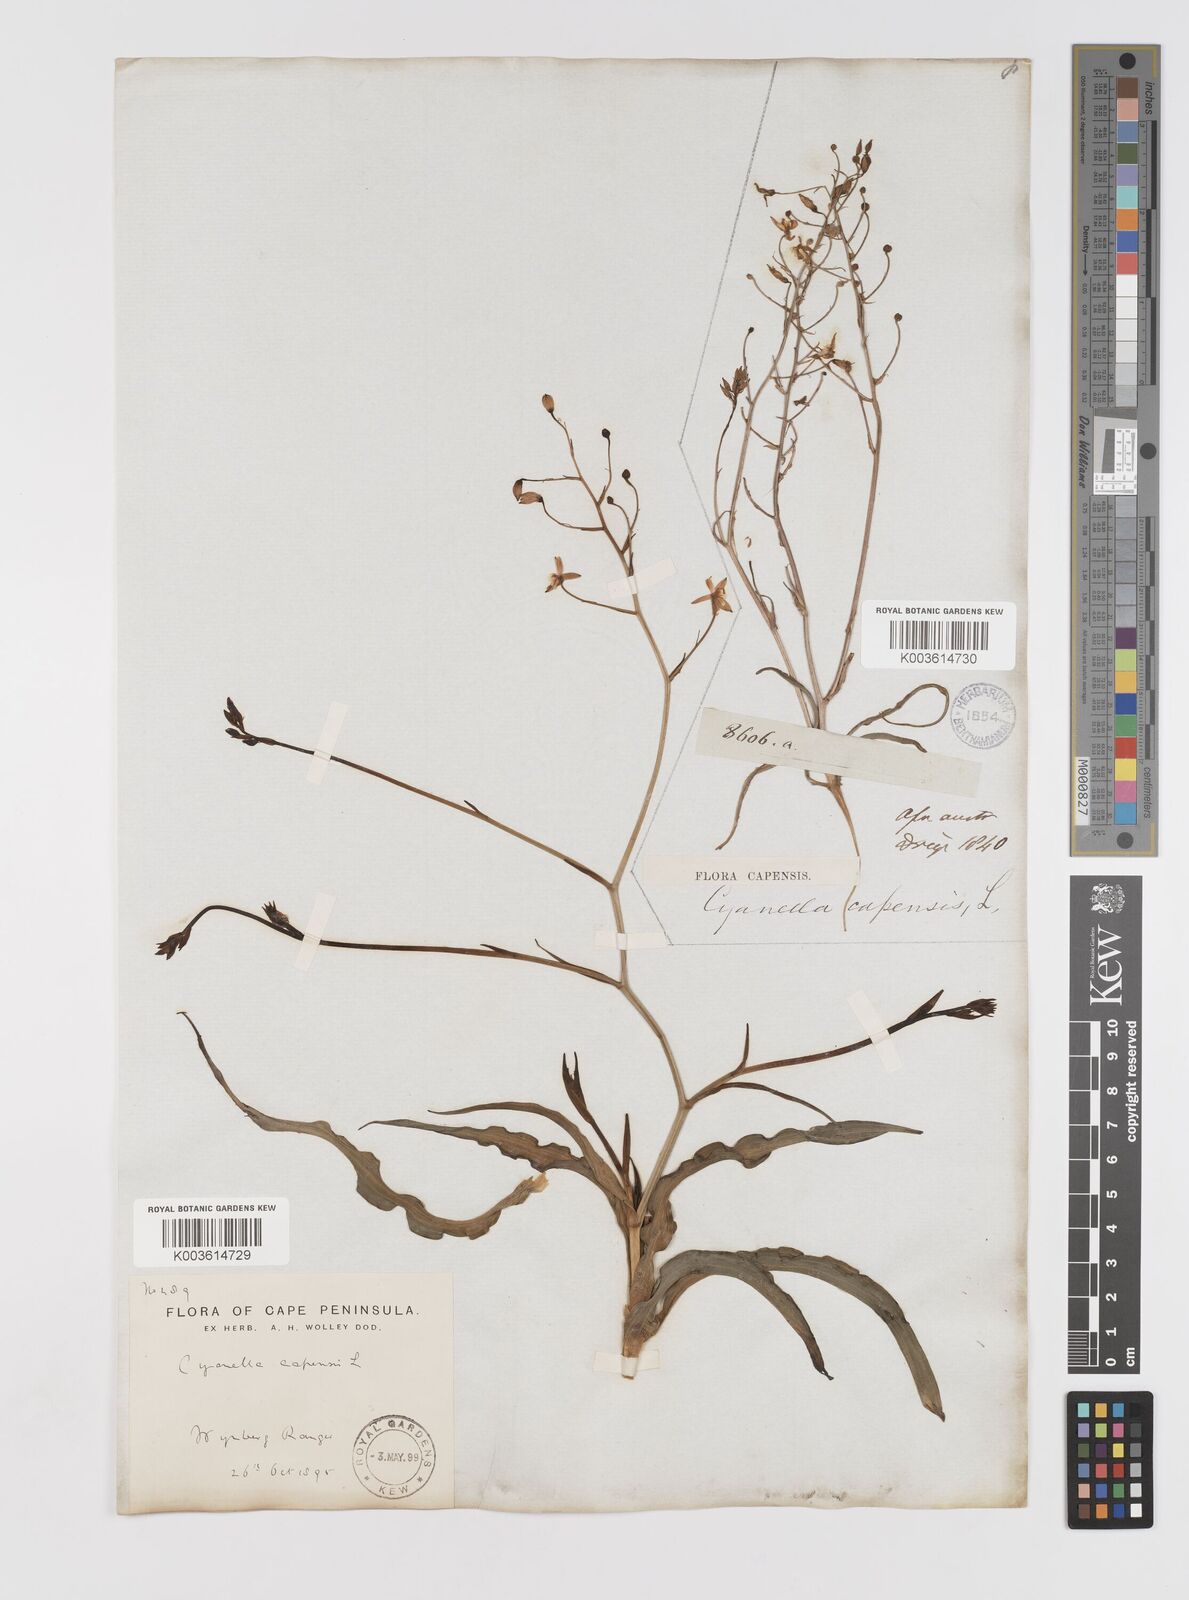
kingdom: Plantae
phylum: Tracheophyta
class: Liliopsida
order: Asparagales
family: Tecophilaeaceae
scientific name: Tecophilaeaceae
